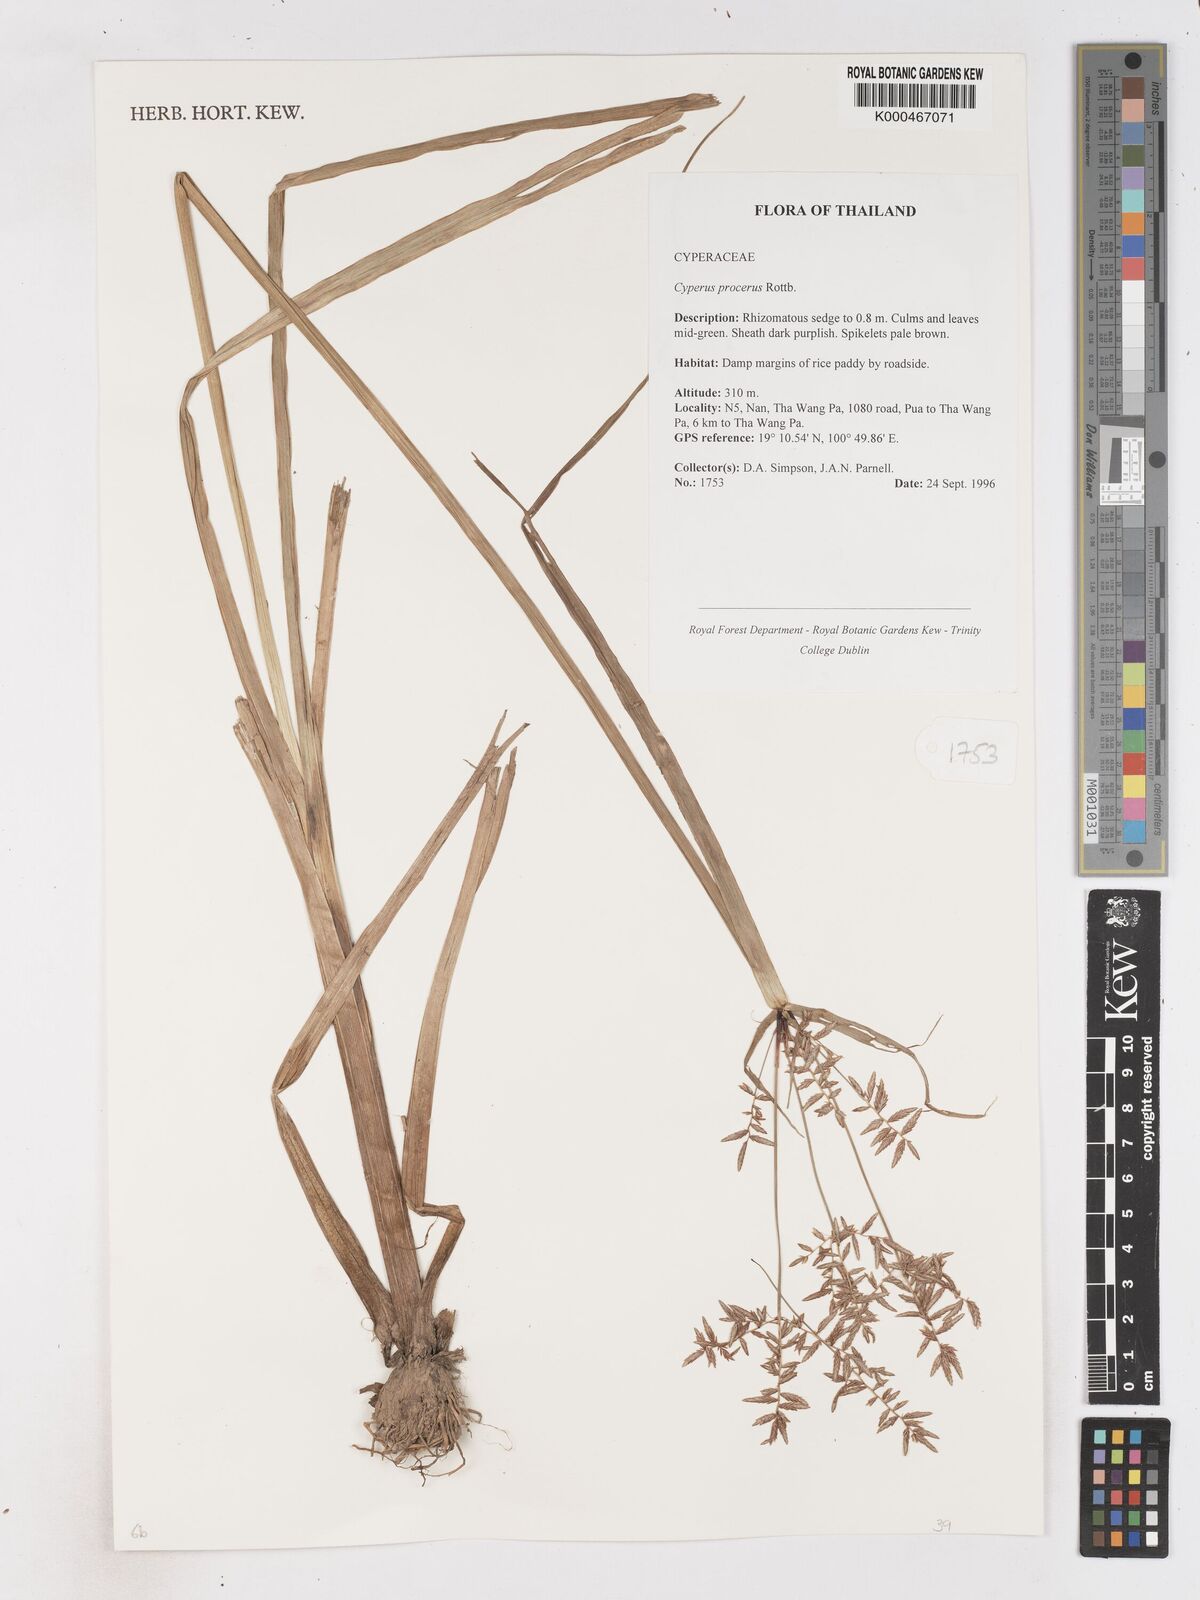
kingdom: Plantae
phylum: Tracheophyta
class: Liliopsida
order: Poales
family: Cyperaceae
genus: Cyperus
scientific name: Cyperus procerus
